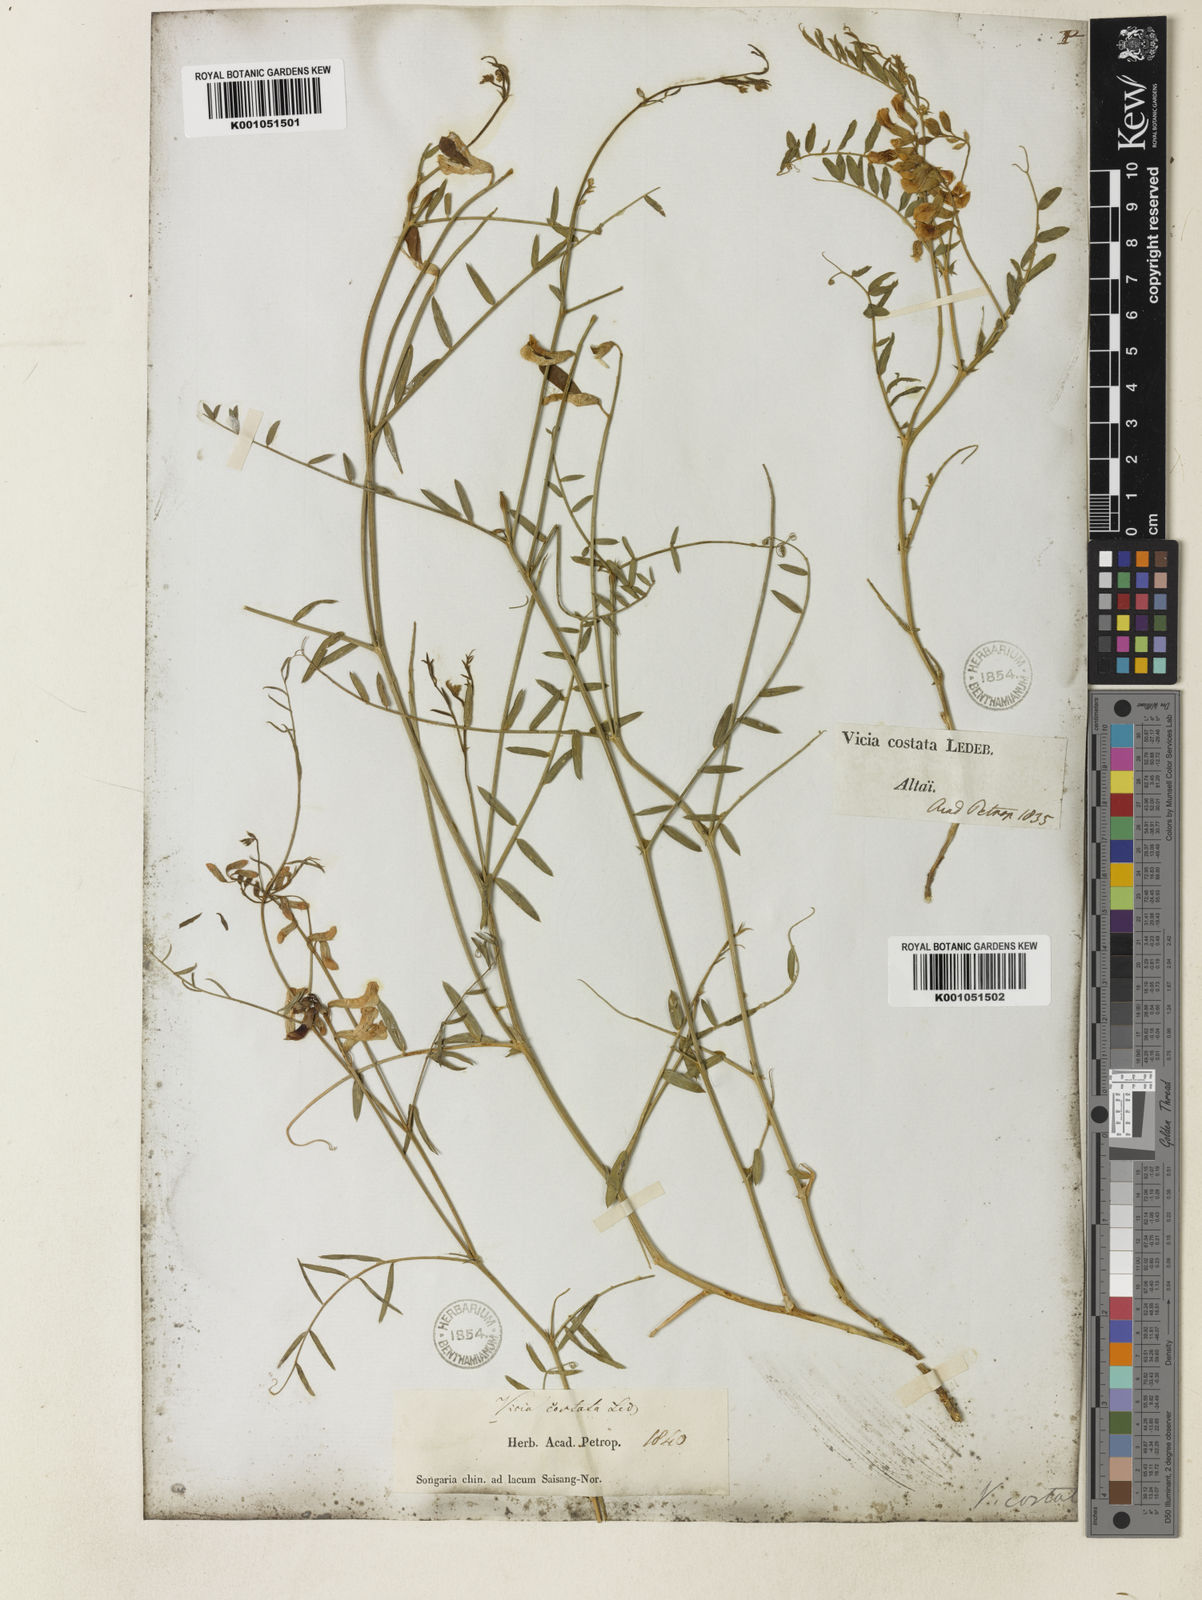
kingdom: Plantae
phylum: Tracheophyta
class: Magnoliopsida
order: Fabales
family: Fabaceae
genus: Vicia
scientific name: Vicia costata
